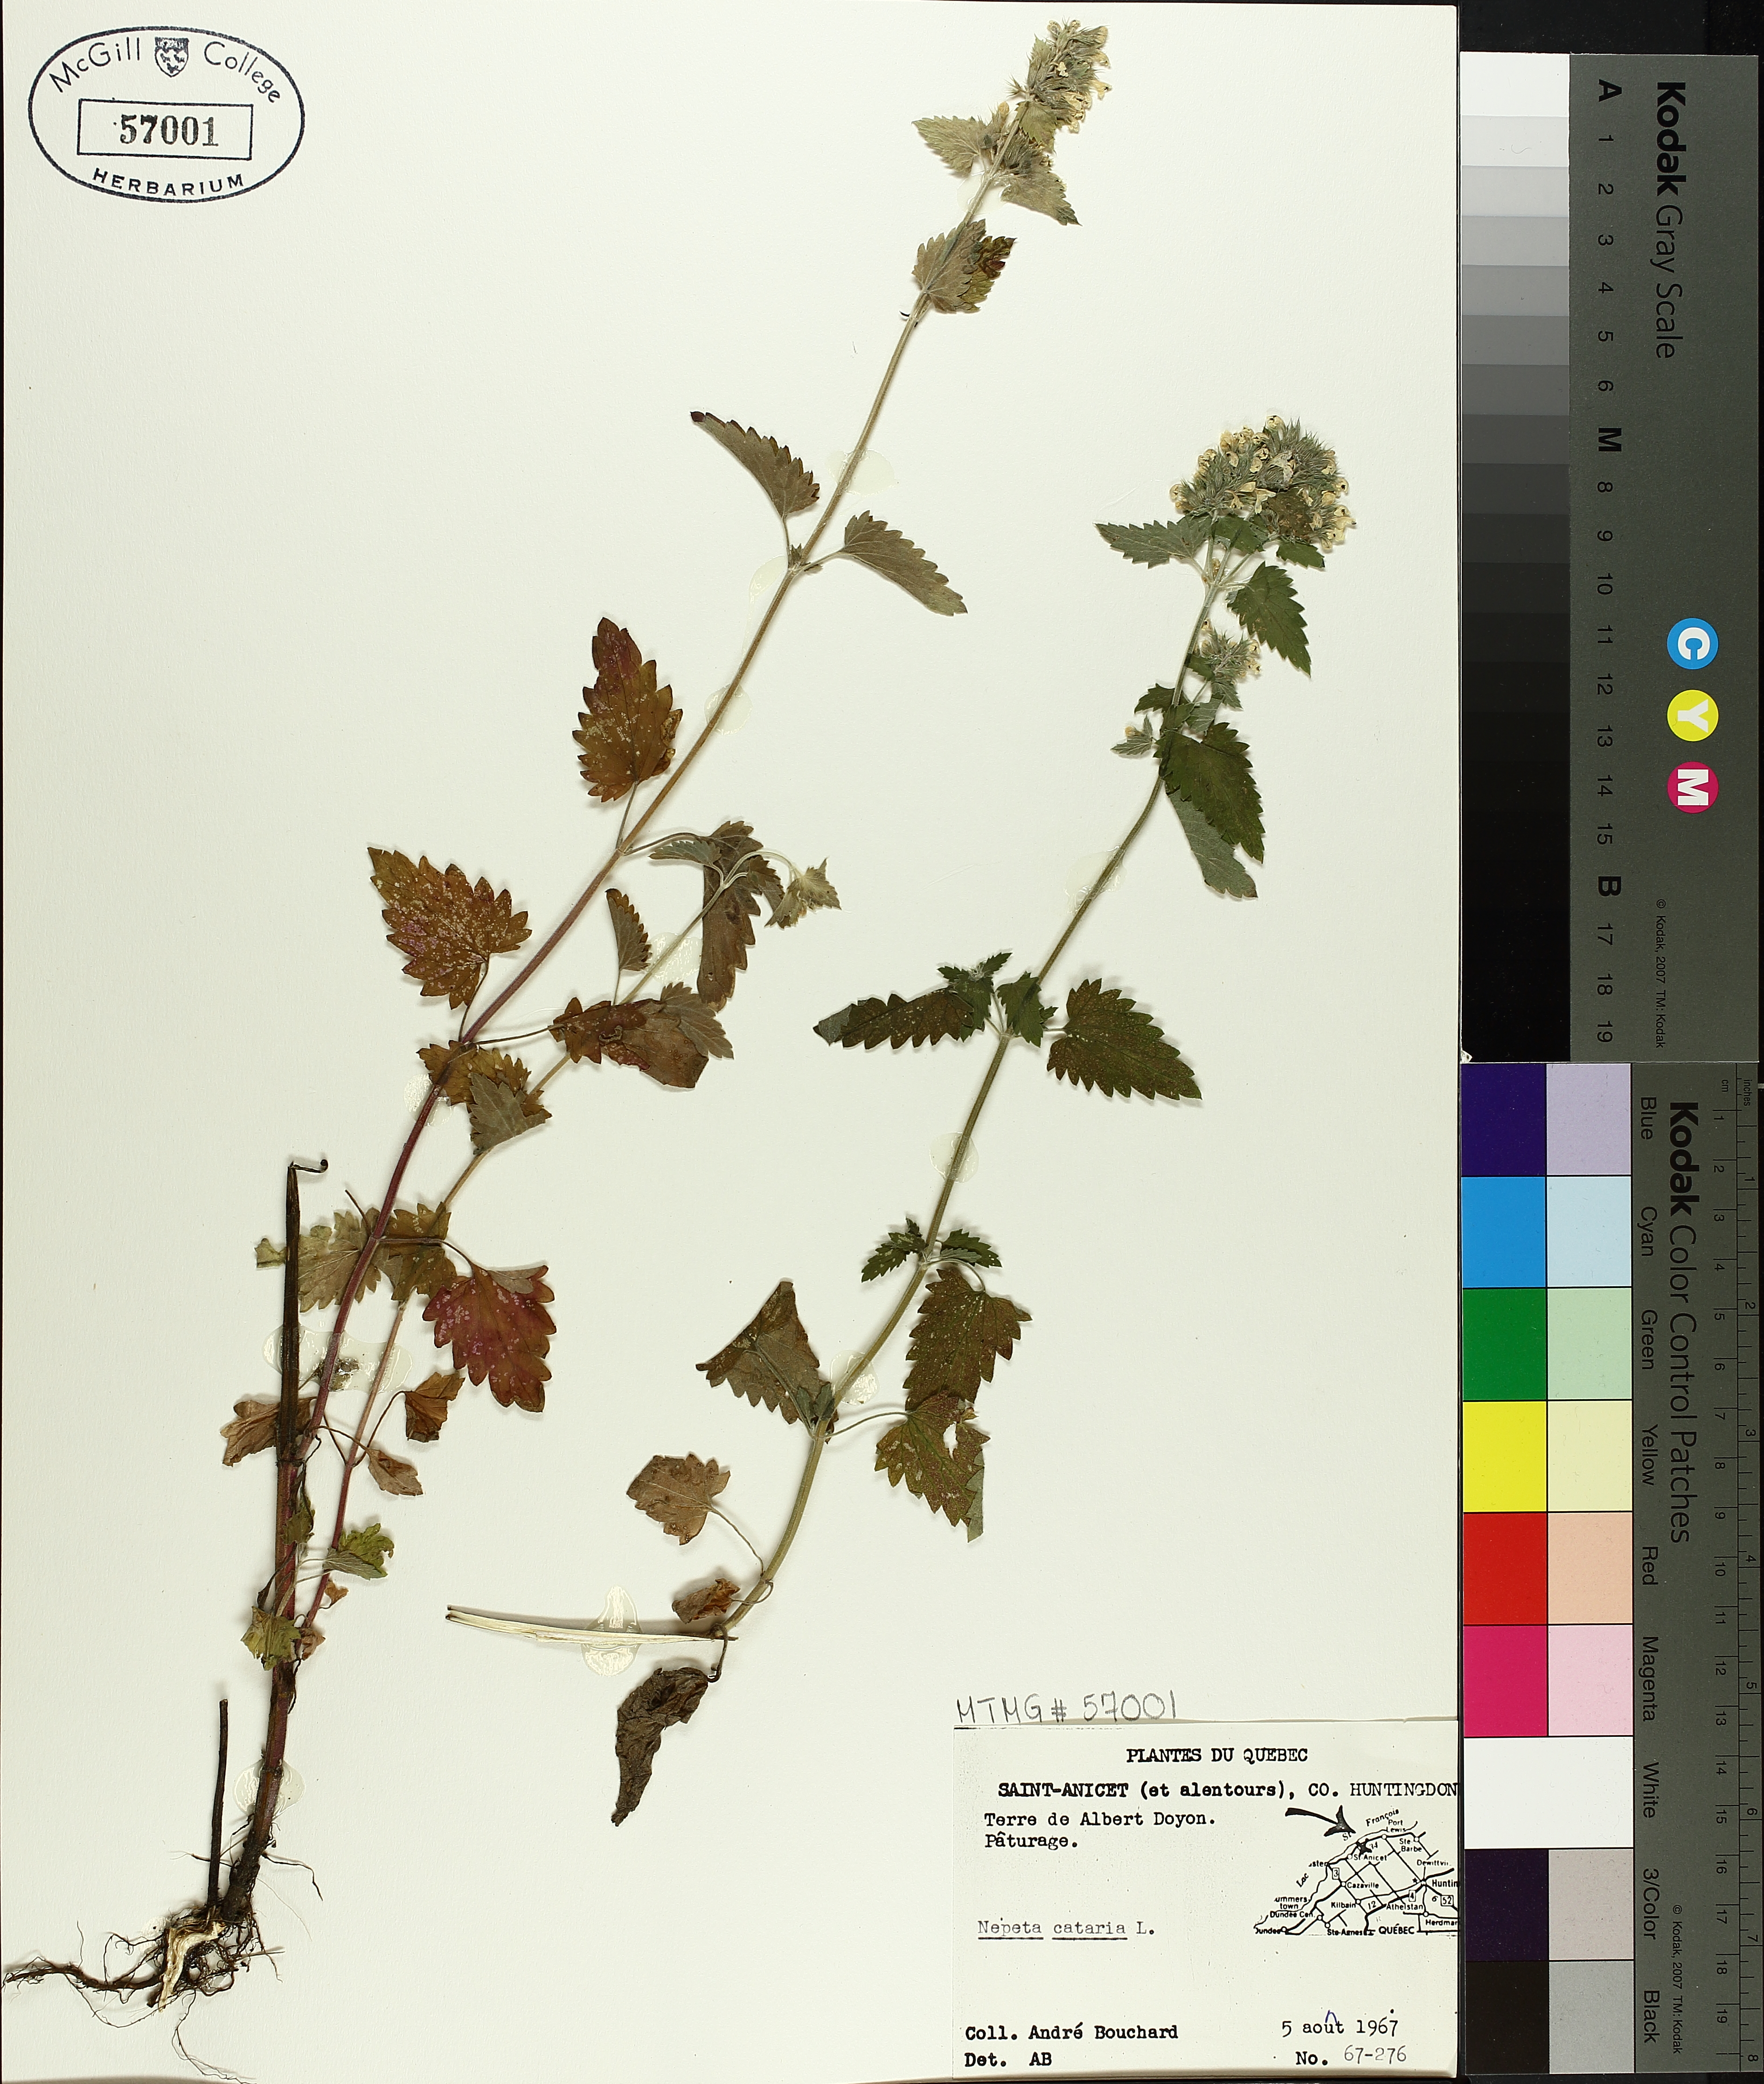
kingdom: Plantae
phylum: Tracheophyta
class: Magnoliopsida
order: Lamiales
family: Lamiaceae
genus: Nepeta
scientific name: Nepeta cataria
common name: Catnip
